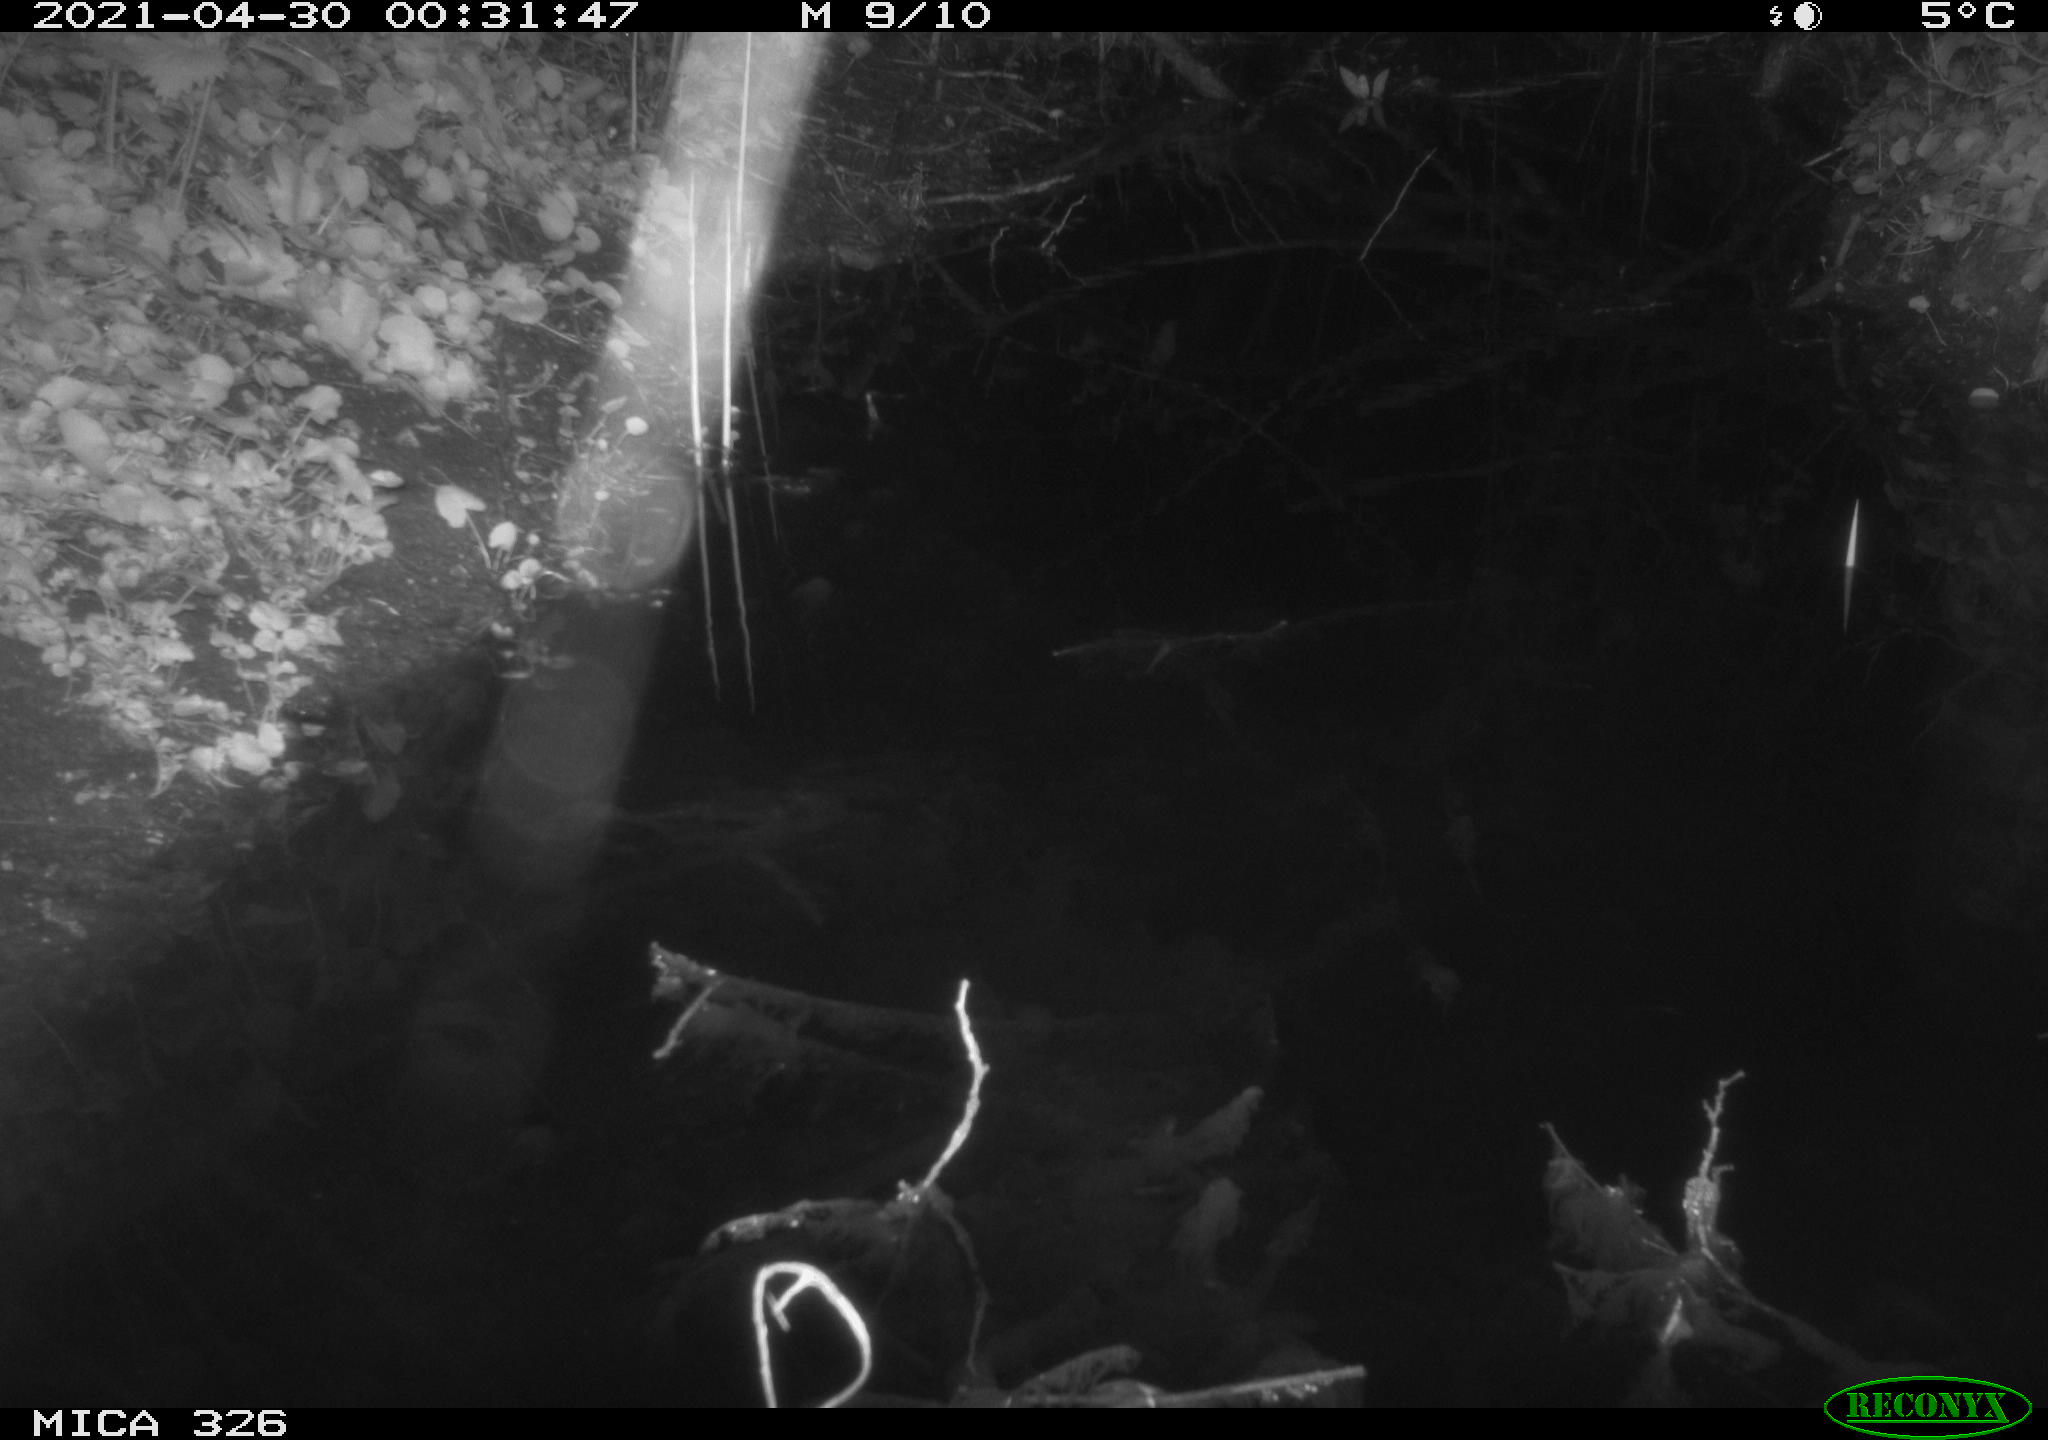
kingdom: Animalia
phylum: Chordata
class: Mammalia
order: Rodentia
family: Muridae
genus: Rattus
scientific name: Rattus norvegicus
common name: Brown rat
